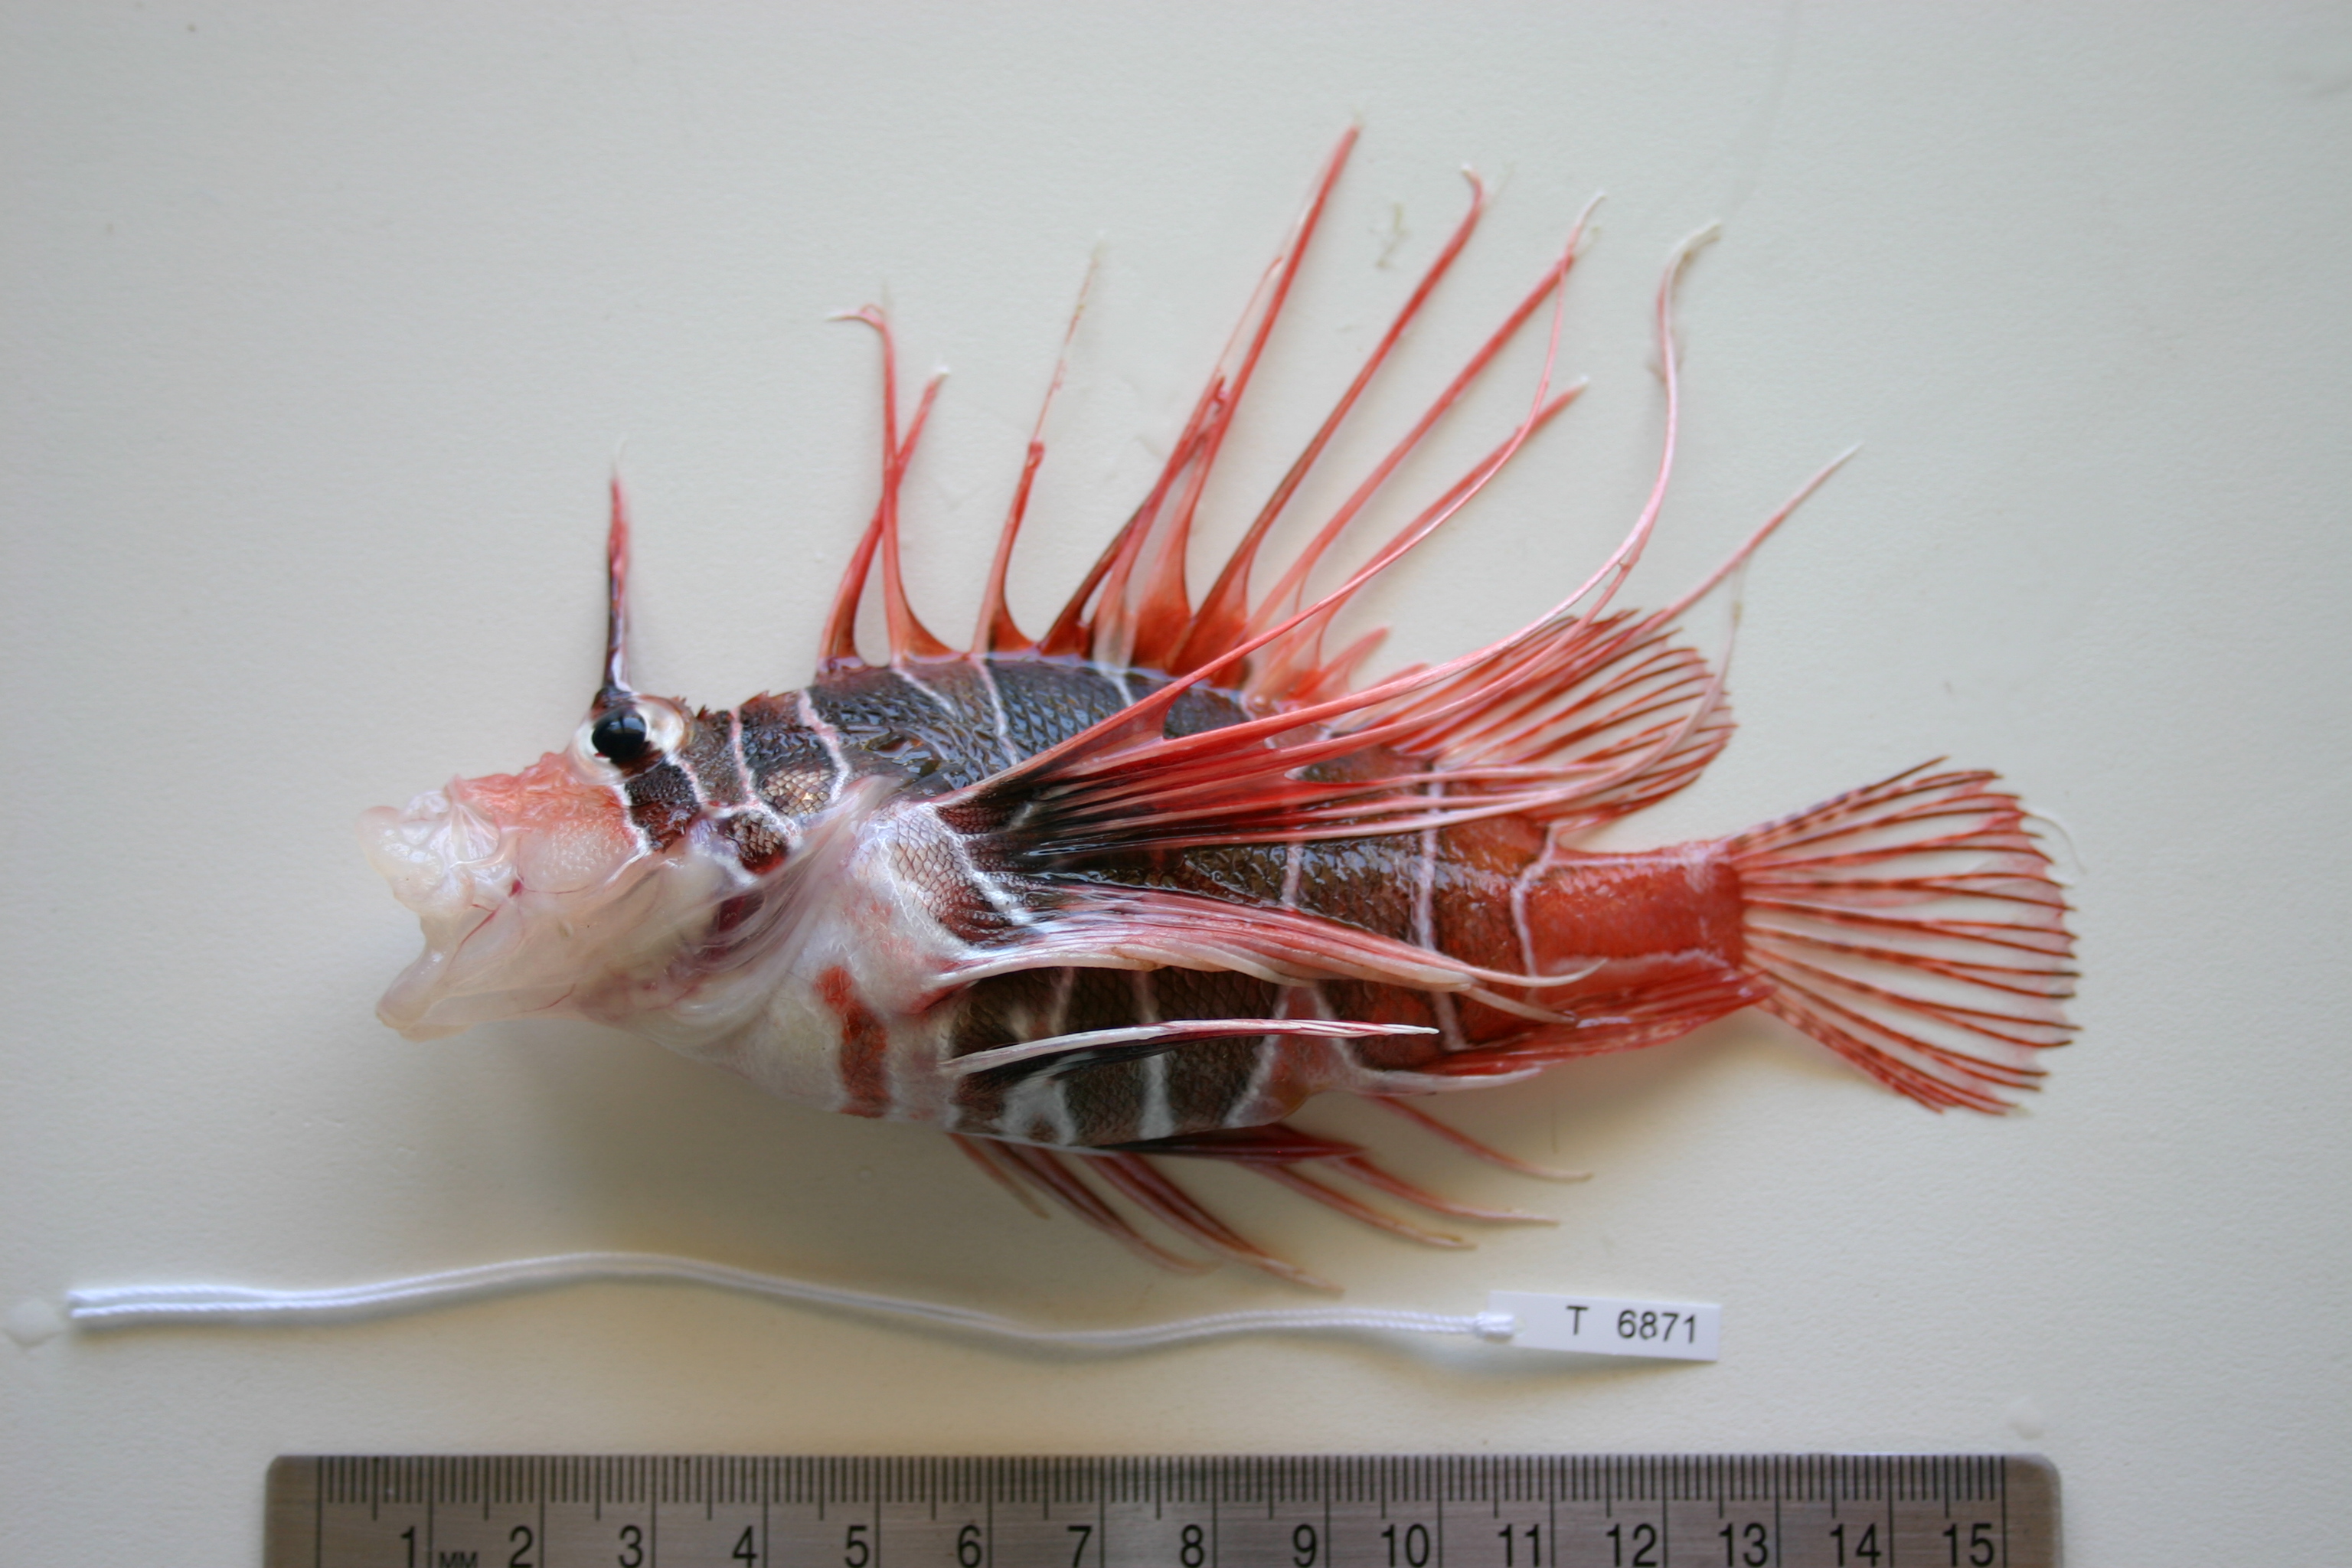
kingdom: Animalia
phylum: Chordata
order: Scorpaeniformes
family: Scorpaenidae
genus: Pterois
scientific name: Pterois radiata
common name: Radial firefish
